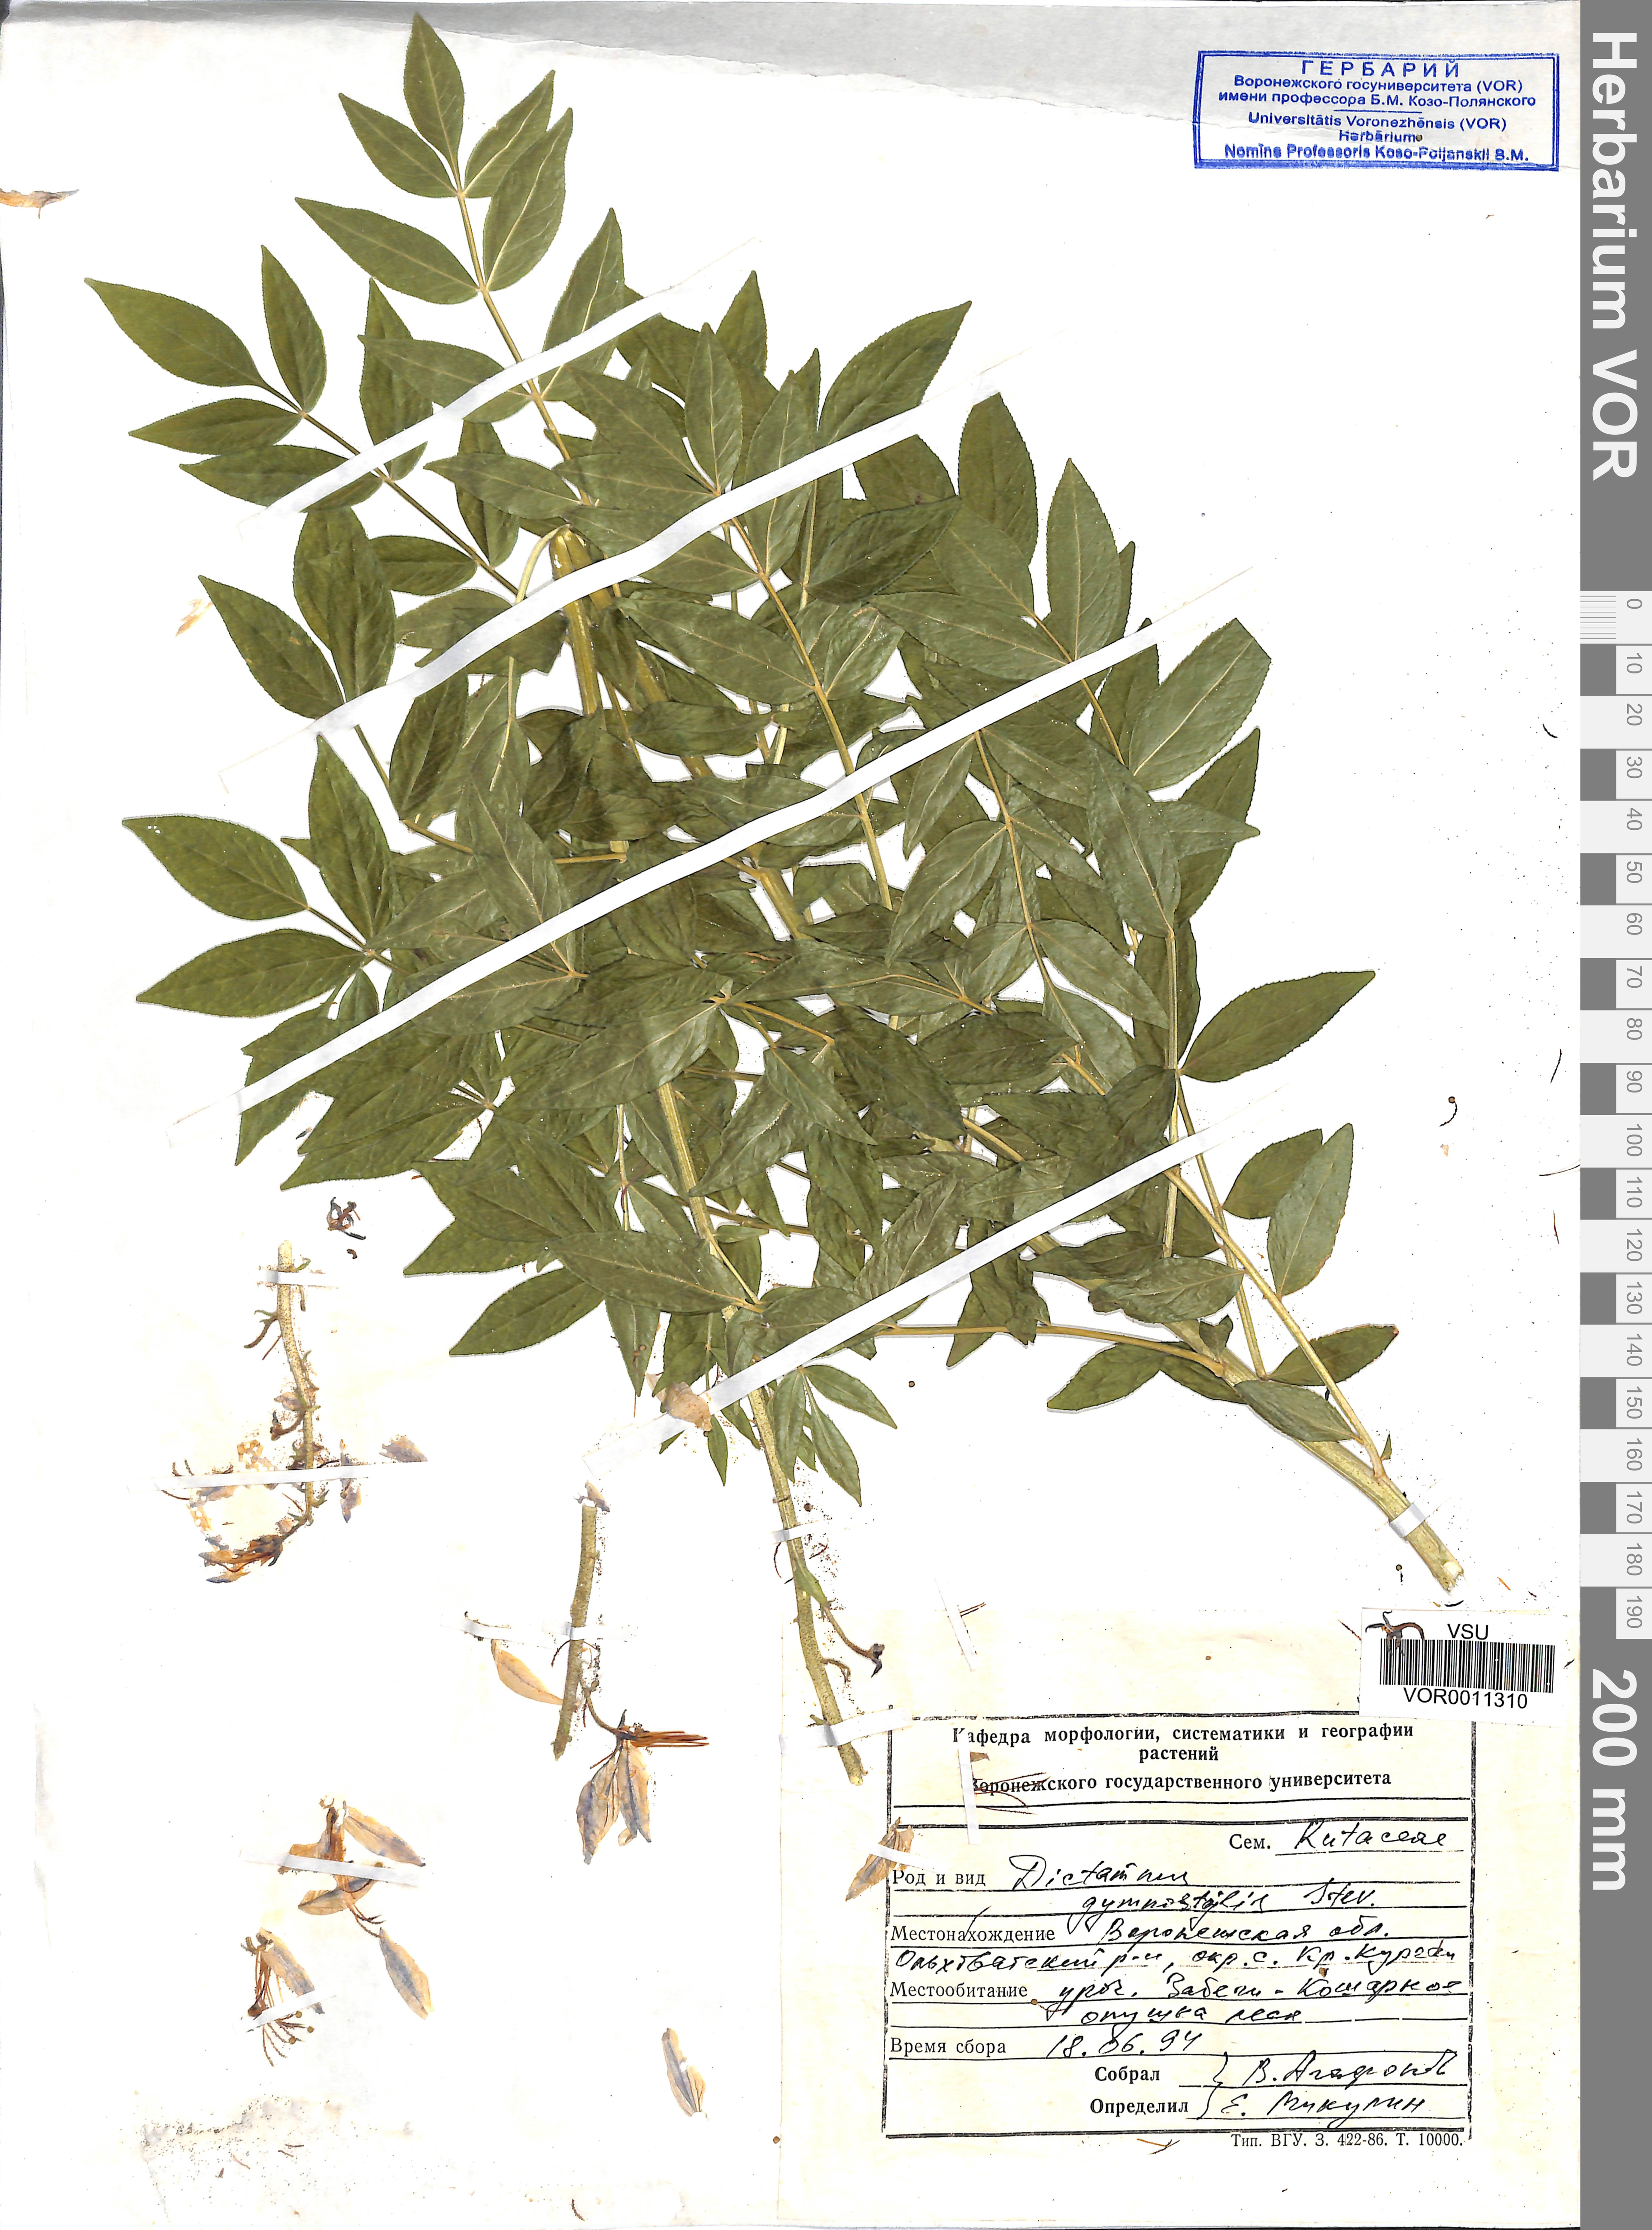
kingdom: Plantae
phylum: Tracheophyta
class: Magnoliopsida
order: Sapindales
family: Rutaceae
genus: Dictamnus
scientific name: Dictamnus albus
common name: Gasplant
